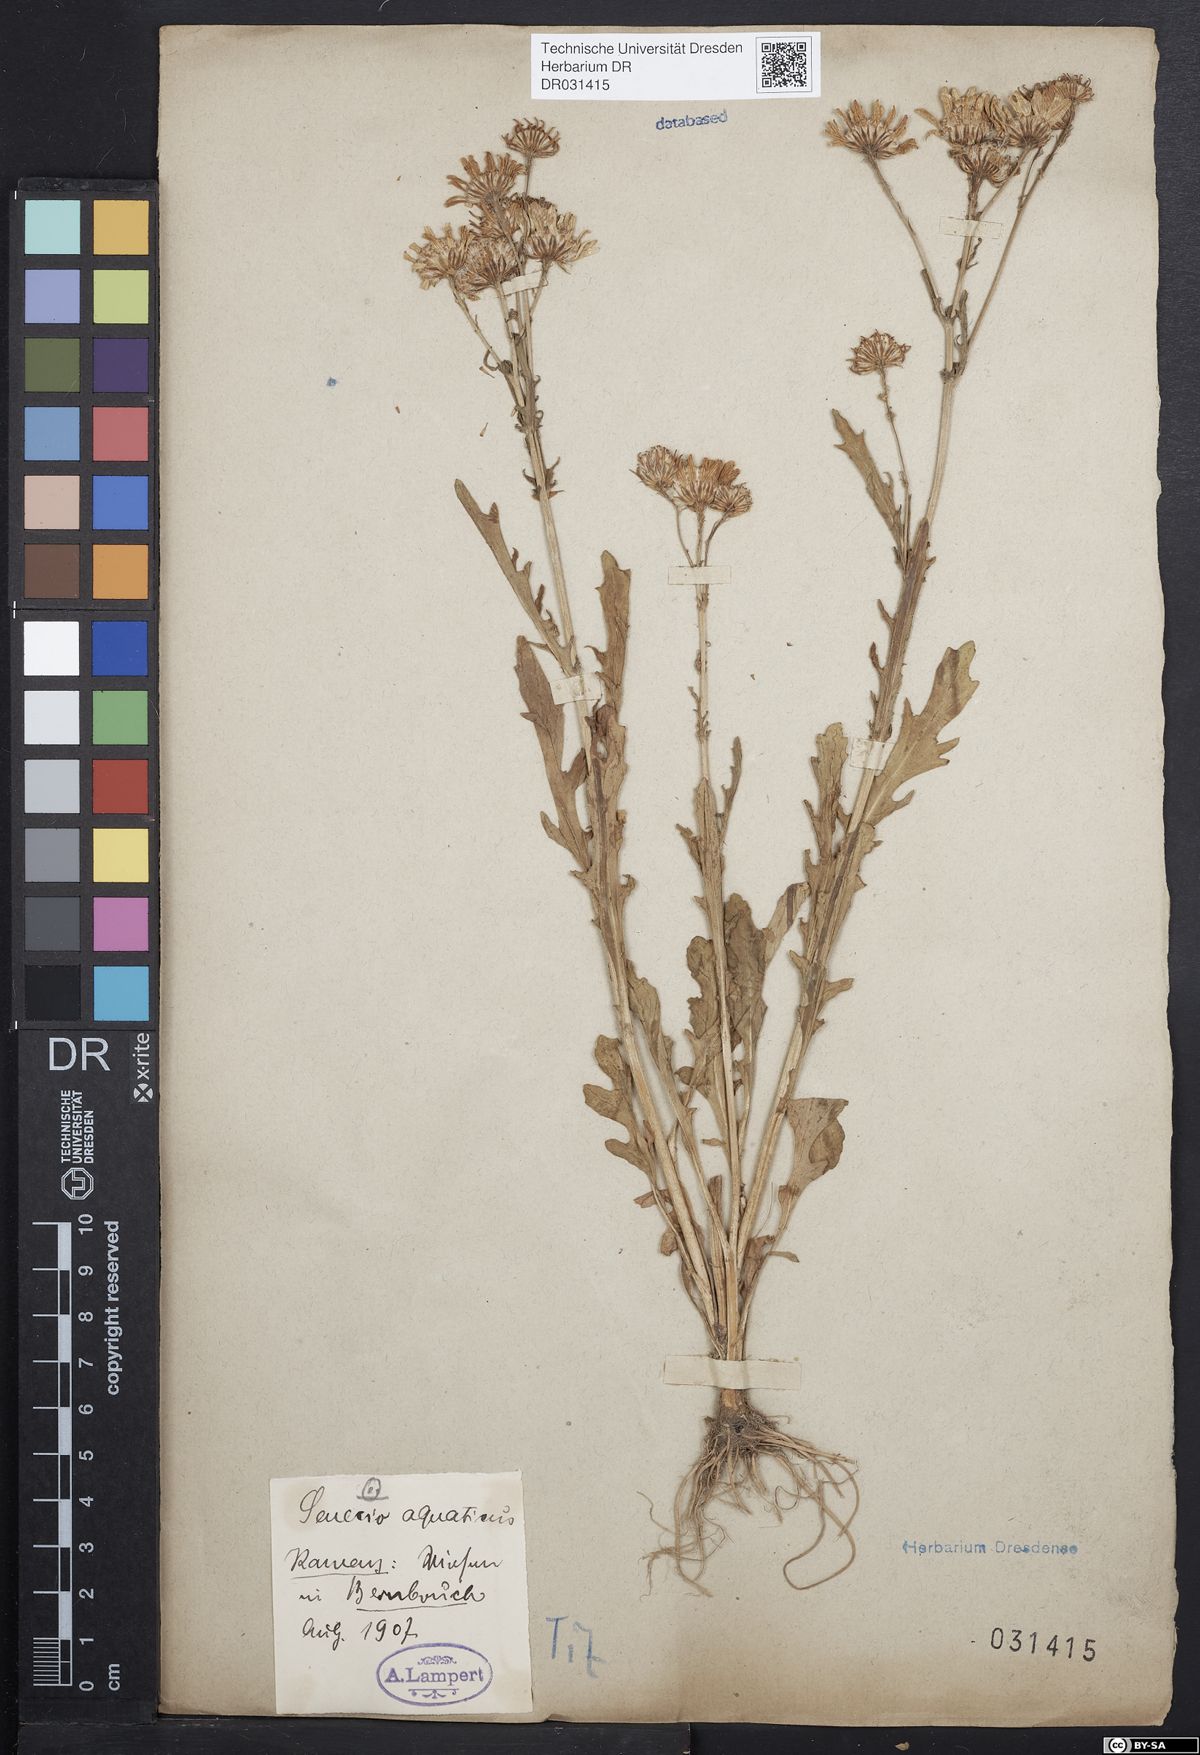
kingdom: Plantae
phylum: Tracheophyta
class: Magnoliopsida
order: Asterales
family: Asteraceae
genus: Jacobaea
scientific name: Jacobaea aquatica
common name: Water ragwort
